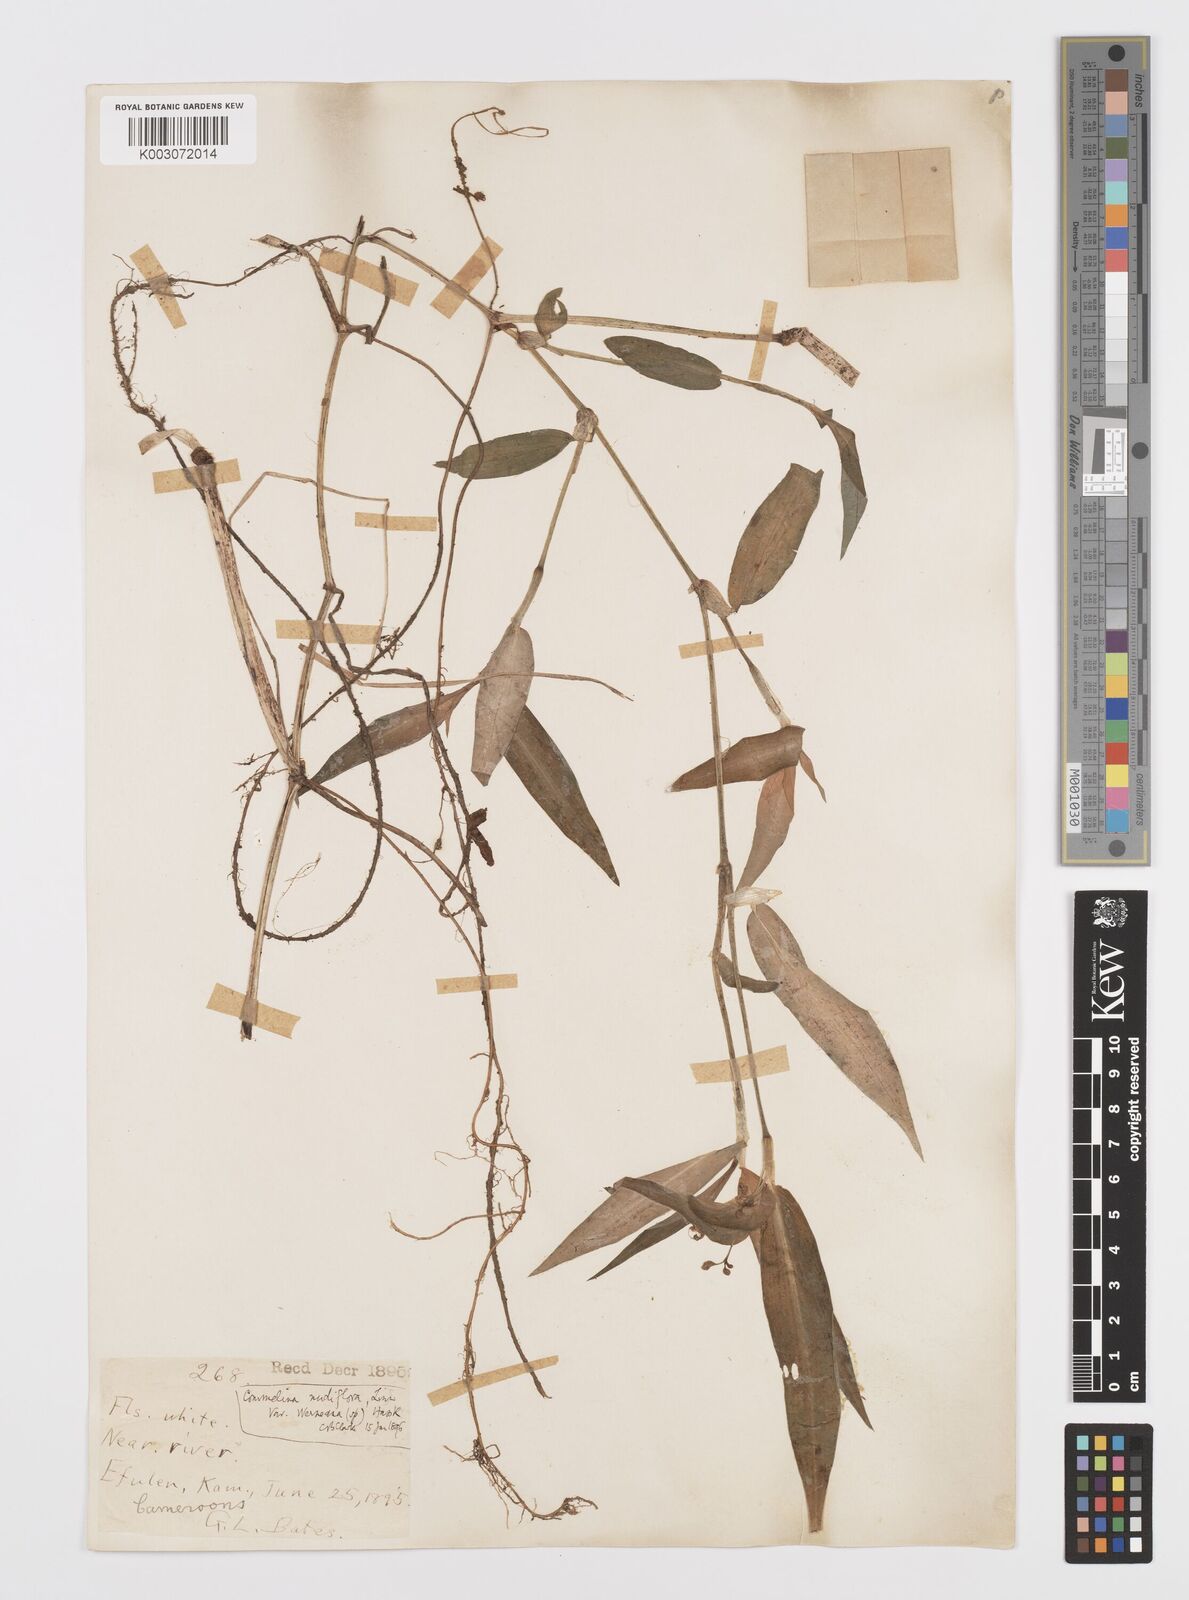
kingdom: Plantae
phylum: Tracheophyta
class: Liliopsida
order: Commelinales
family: Commelinaceae
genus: Commelina
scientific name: Commelina diffusa
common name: Climbing dayflower
